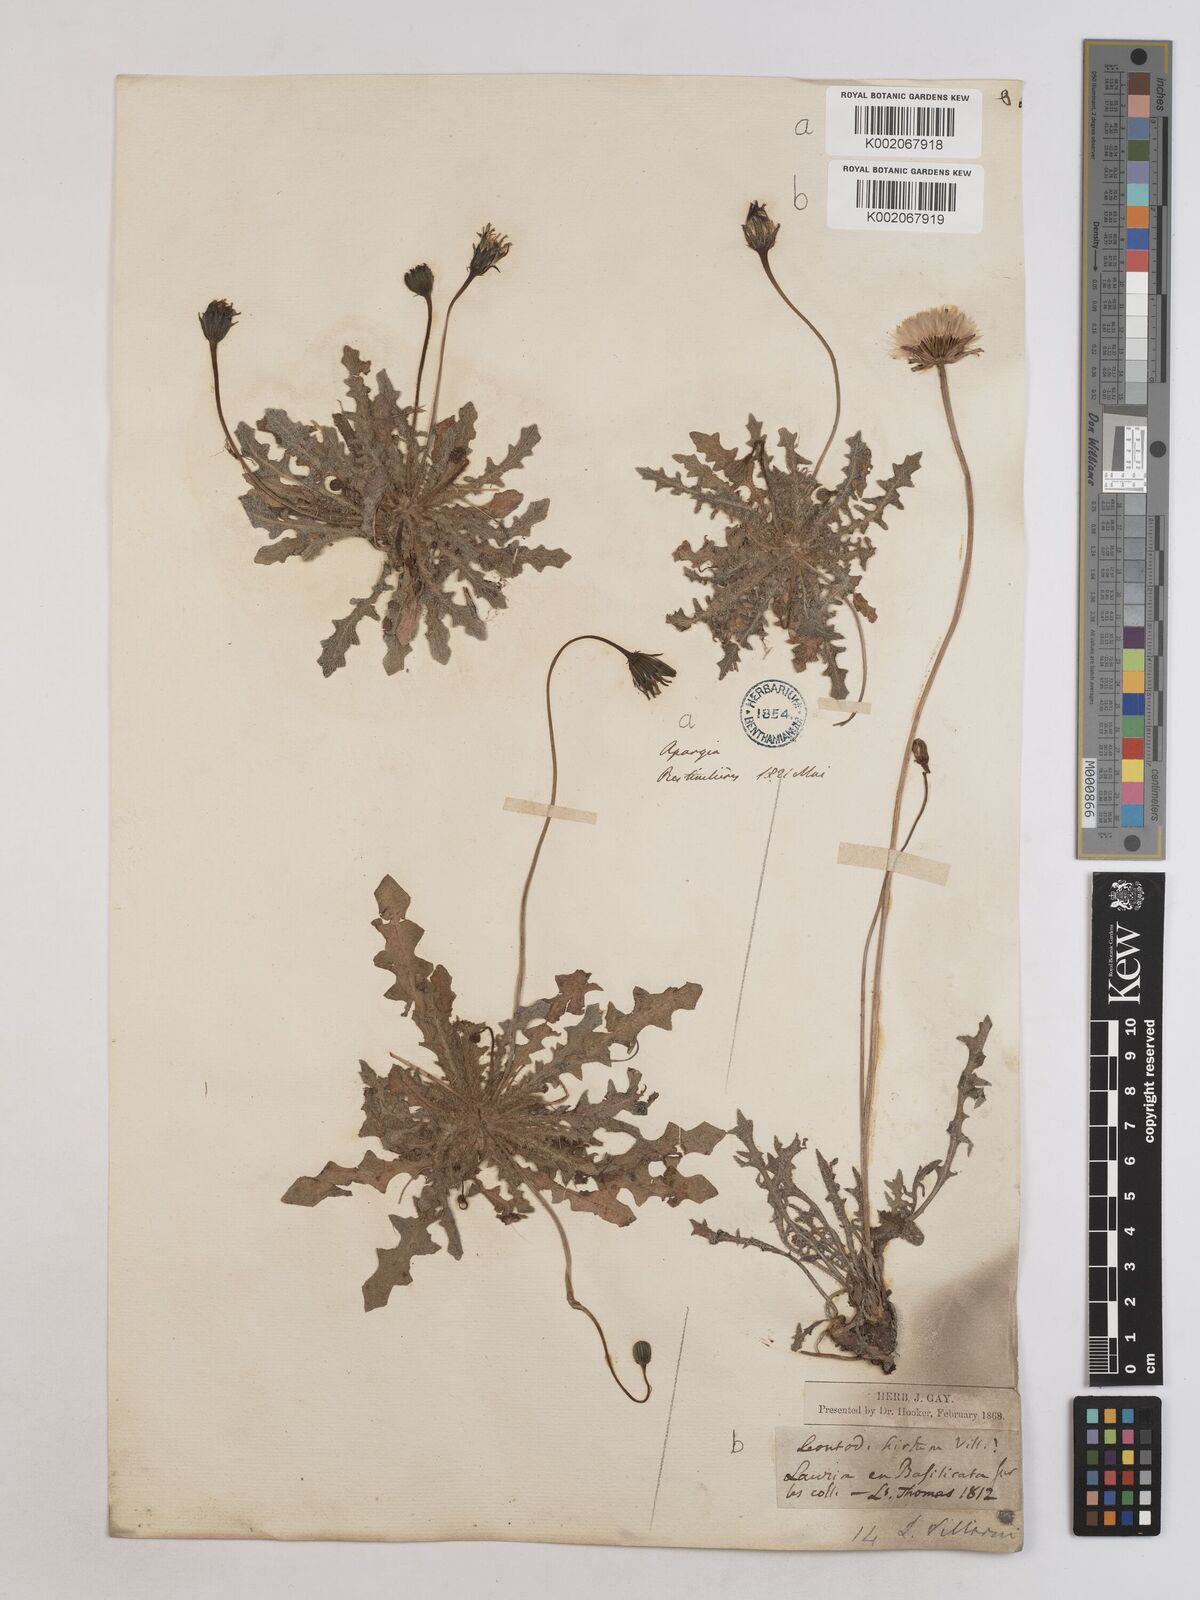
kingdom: Plantae
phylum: Tracheophyta
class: Magnoliopsida
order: Asterales
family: Asteraceae
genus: Leontodon
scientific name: Leontodon hirtus
